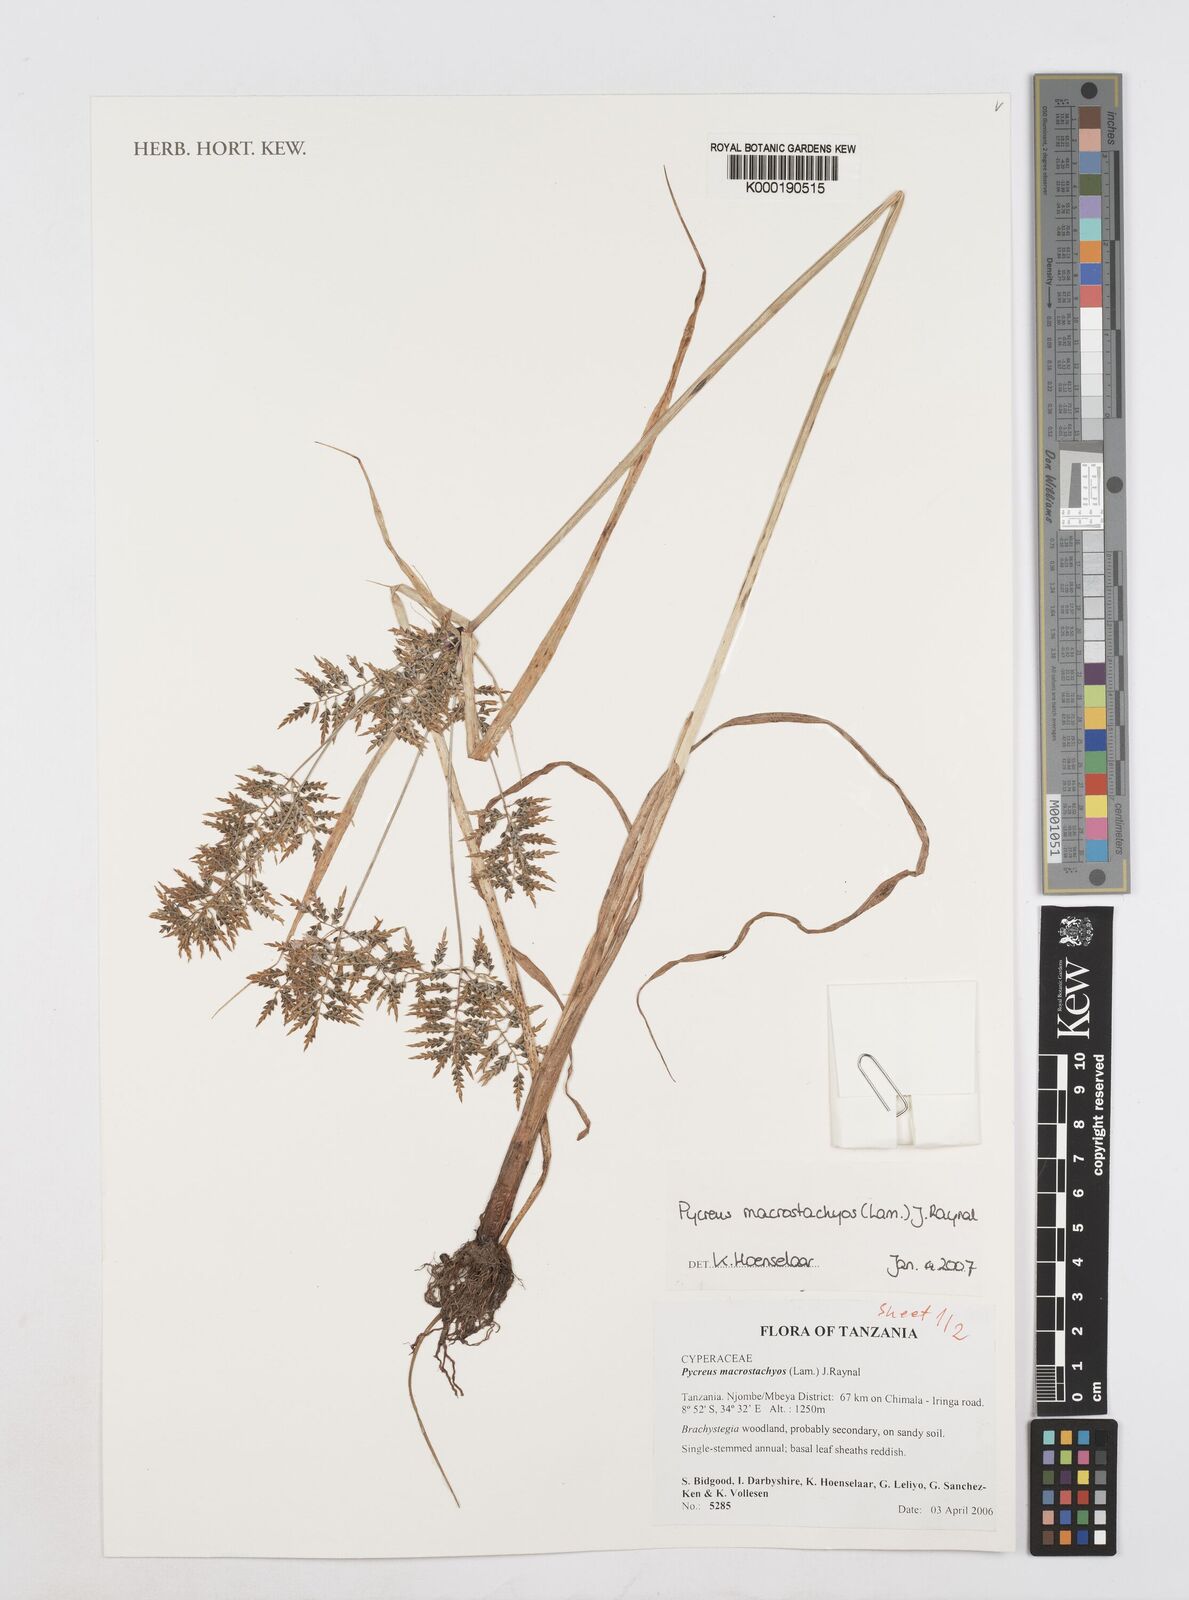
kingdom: Plantae
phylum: Tracheophyta
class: Liliopsida
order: Poales
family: Cyperaceae
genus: Cyperus
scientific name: Cyperus macrostachyos
